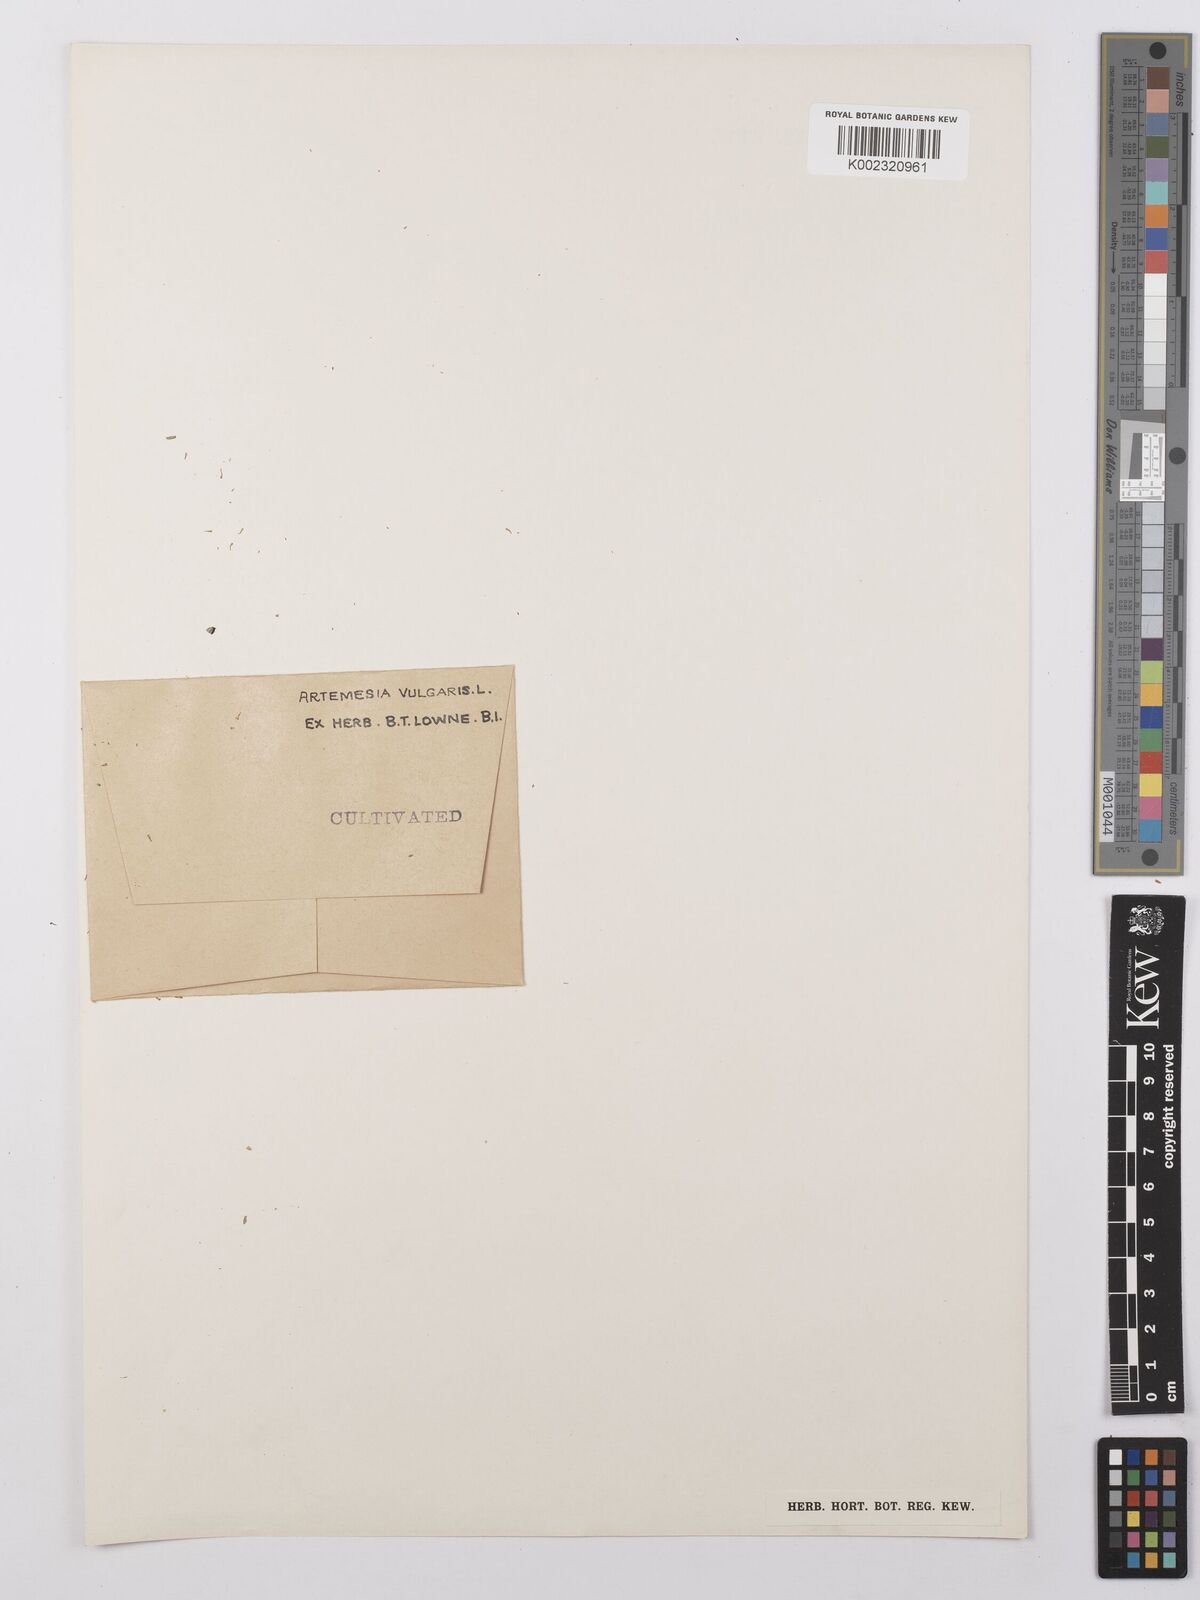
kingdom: Plantae
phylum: Tracheophyta
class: Magnoliopsida
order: Asterales
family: Asteraceae
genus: Artemisia
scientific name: Artemisia vulgaris
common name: Mugwort
